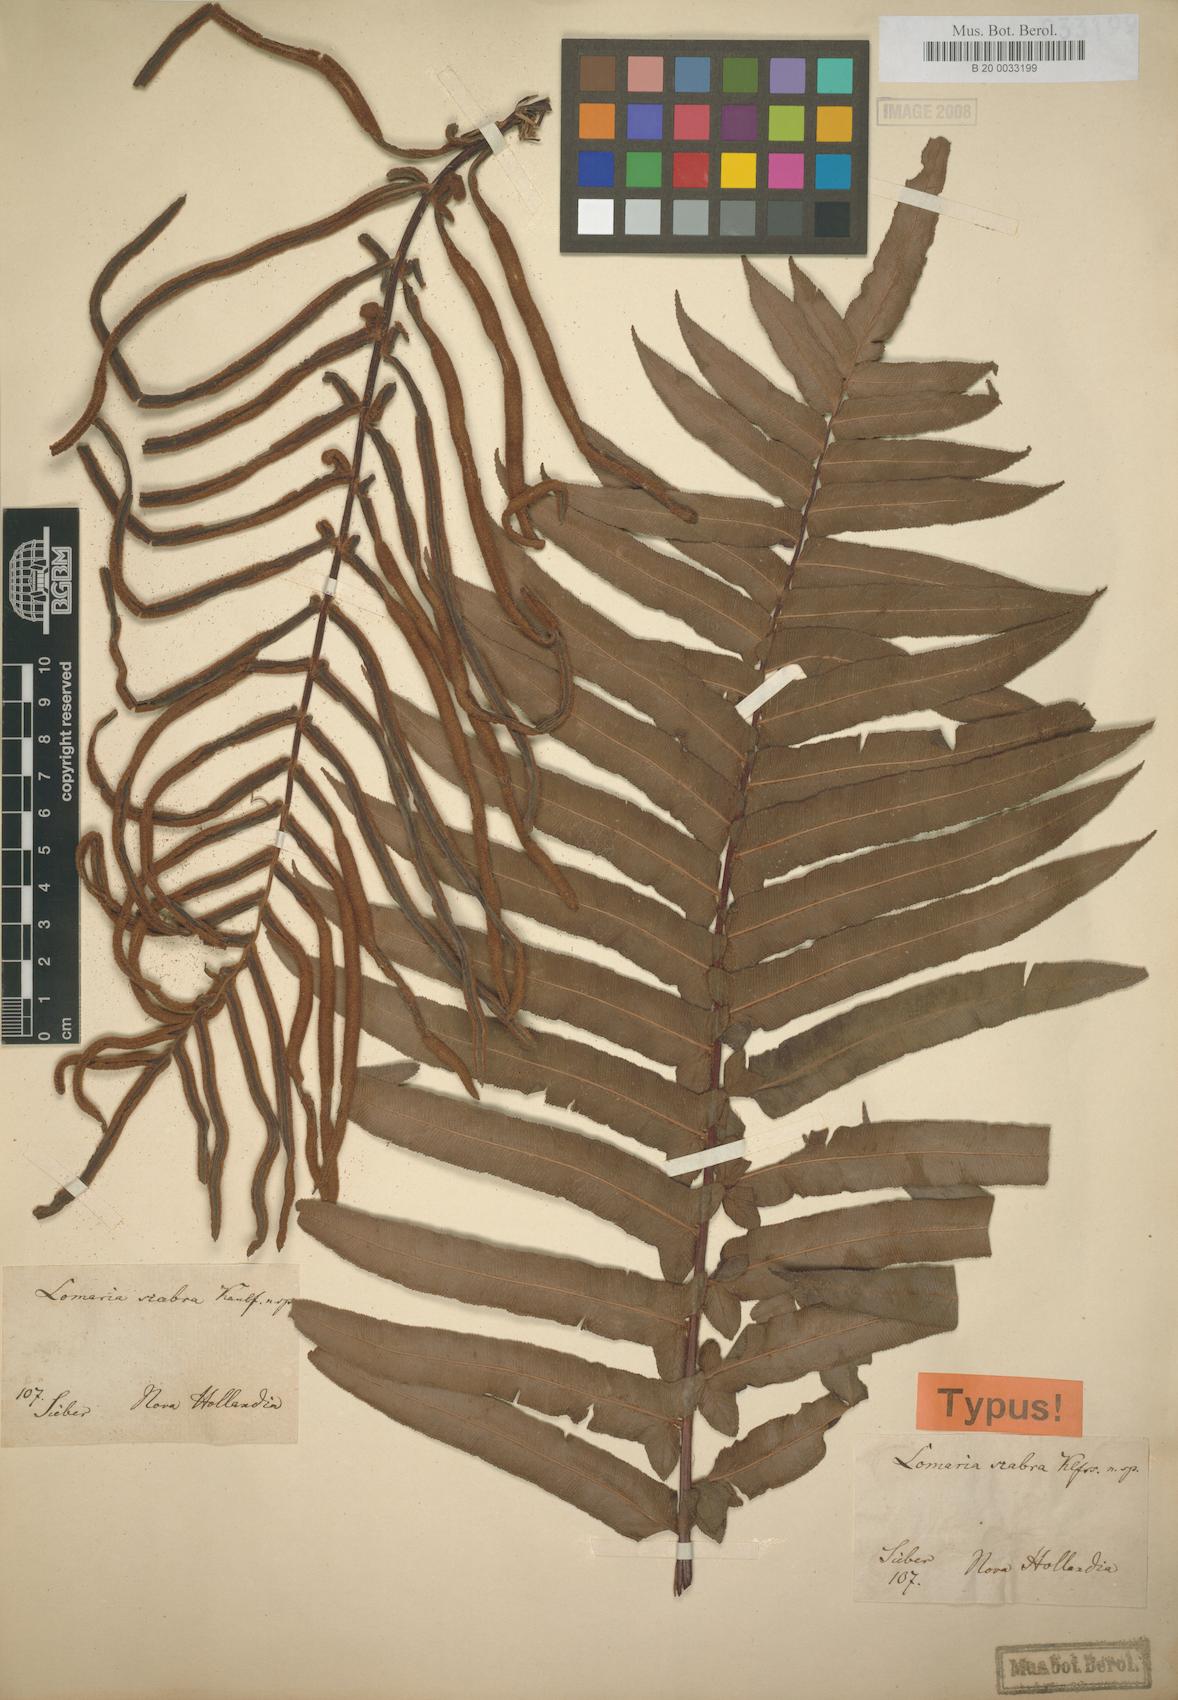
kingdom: Plantae
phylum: Tracheophyta
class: Polypodiopsida
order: Polypodiales
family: Blechnaceae
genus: Blechnum
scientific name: Blechnum laevigatum
